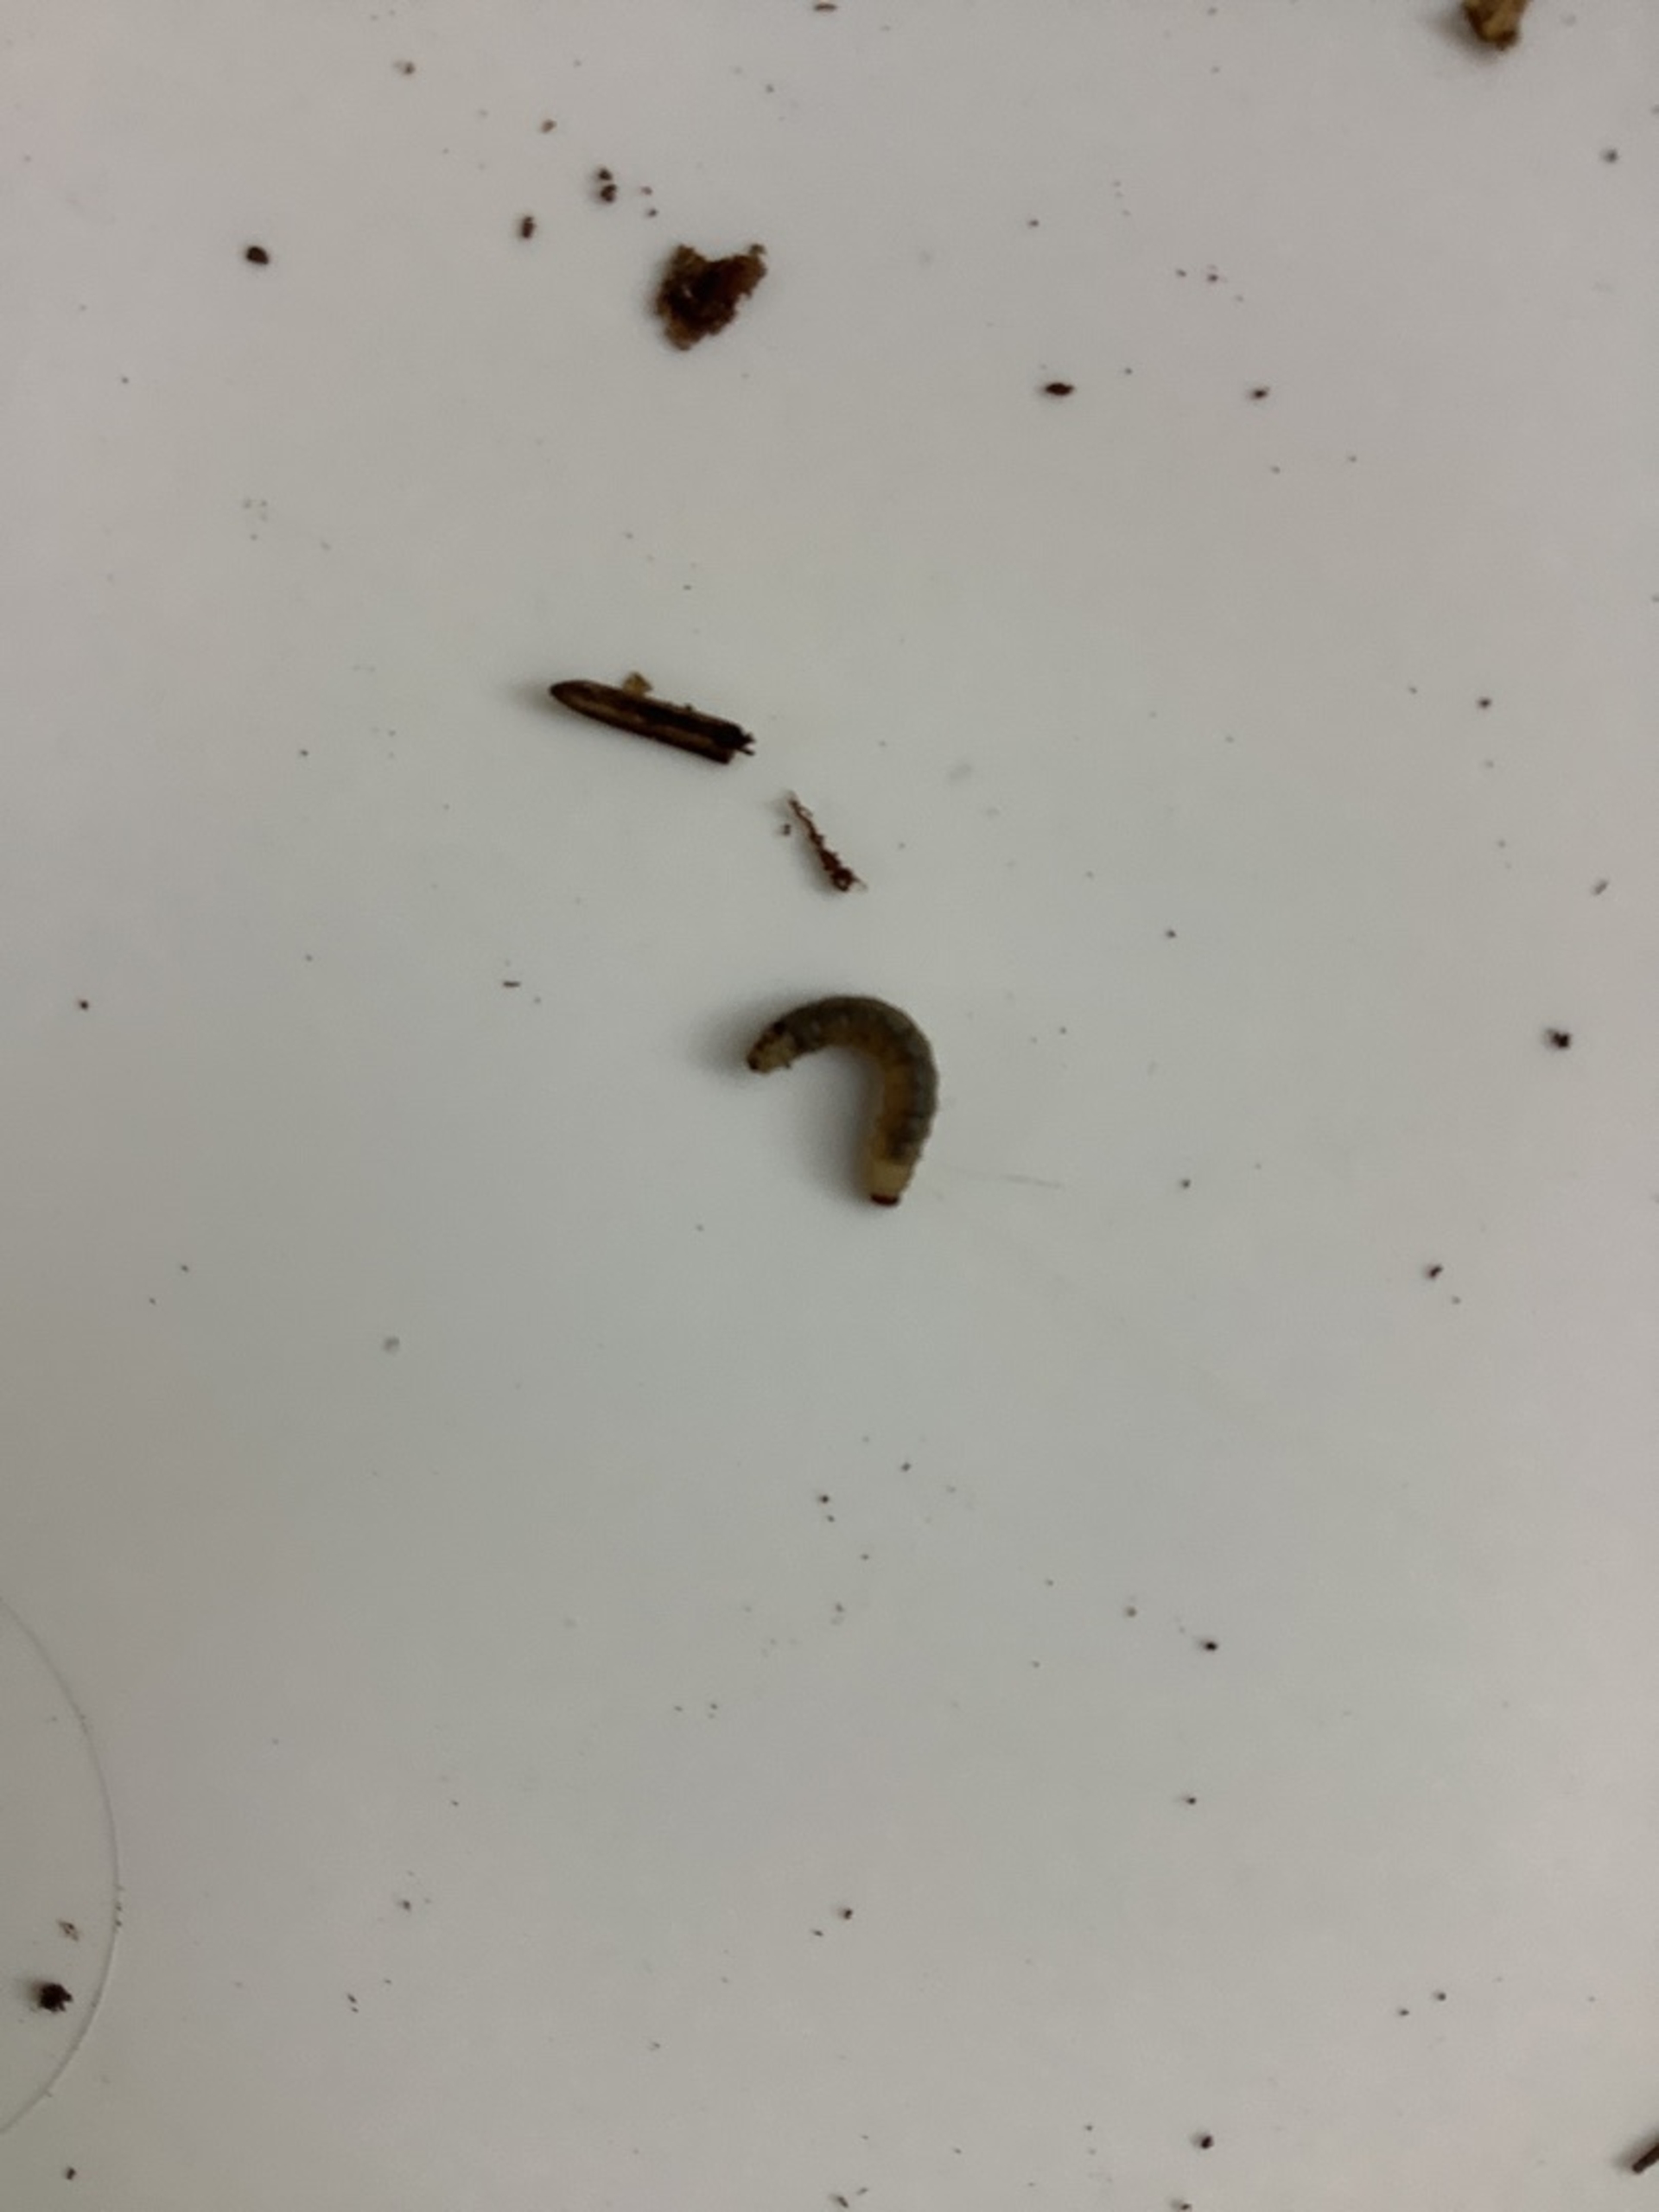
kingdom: Animalia
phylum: Arthropoda
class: Insecta
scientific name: Insecta
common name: Insekter
